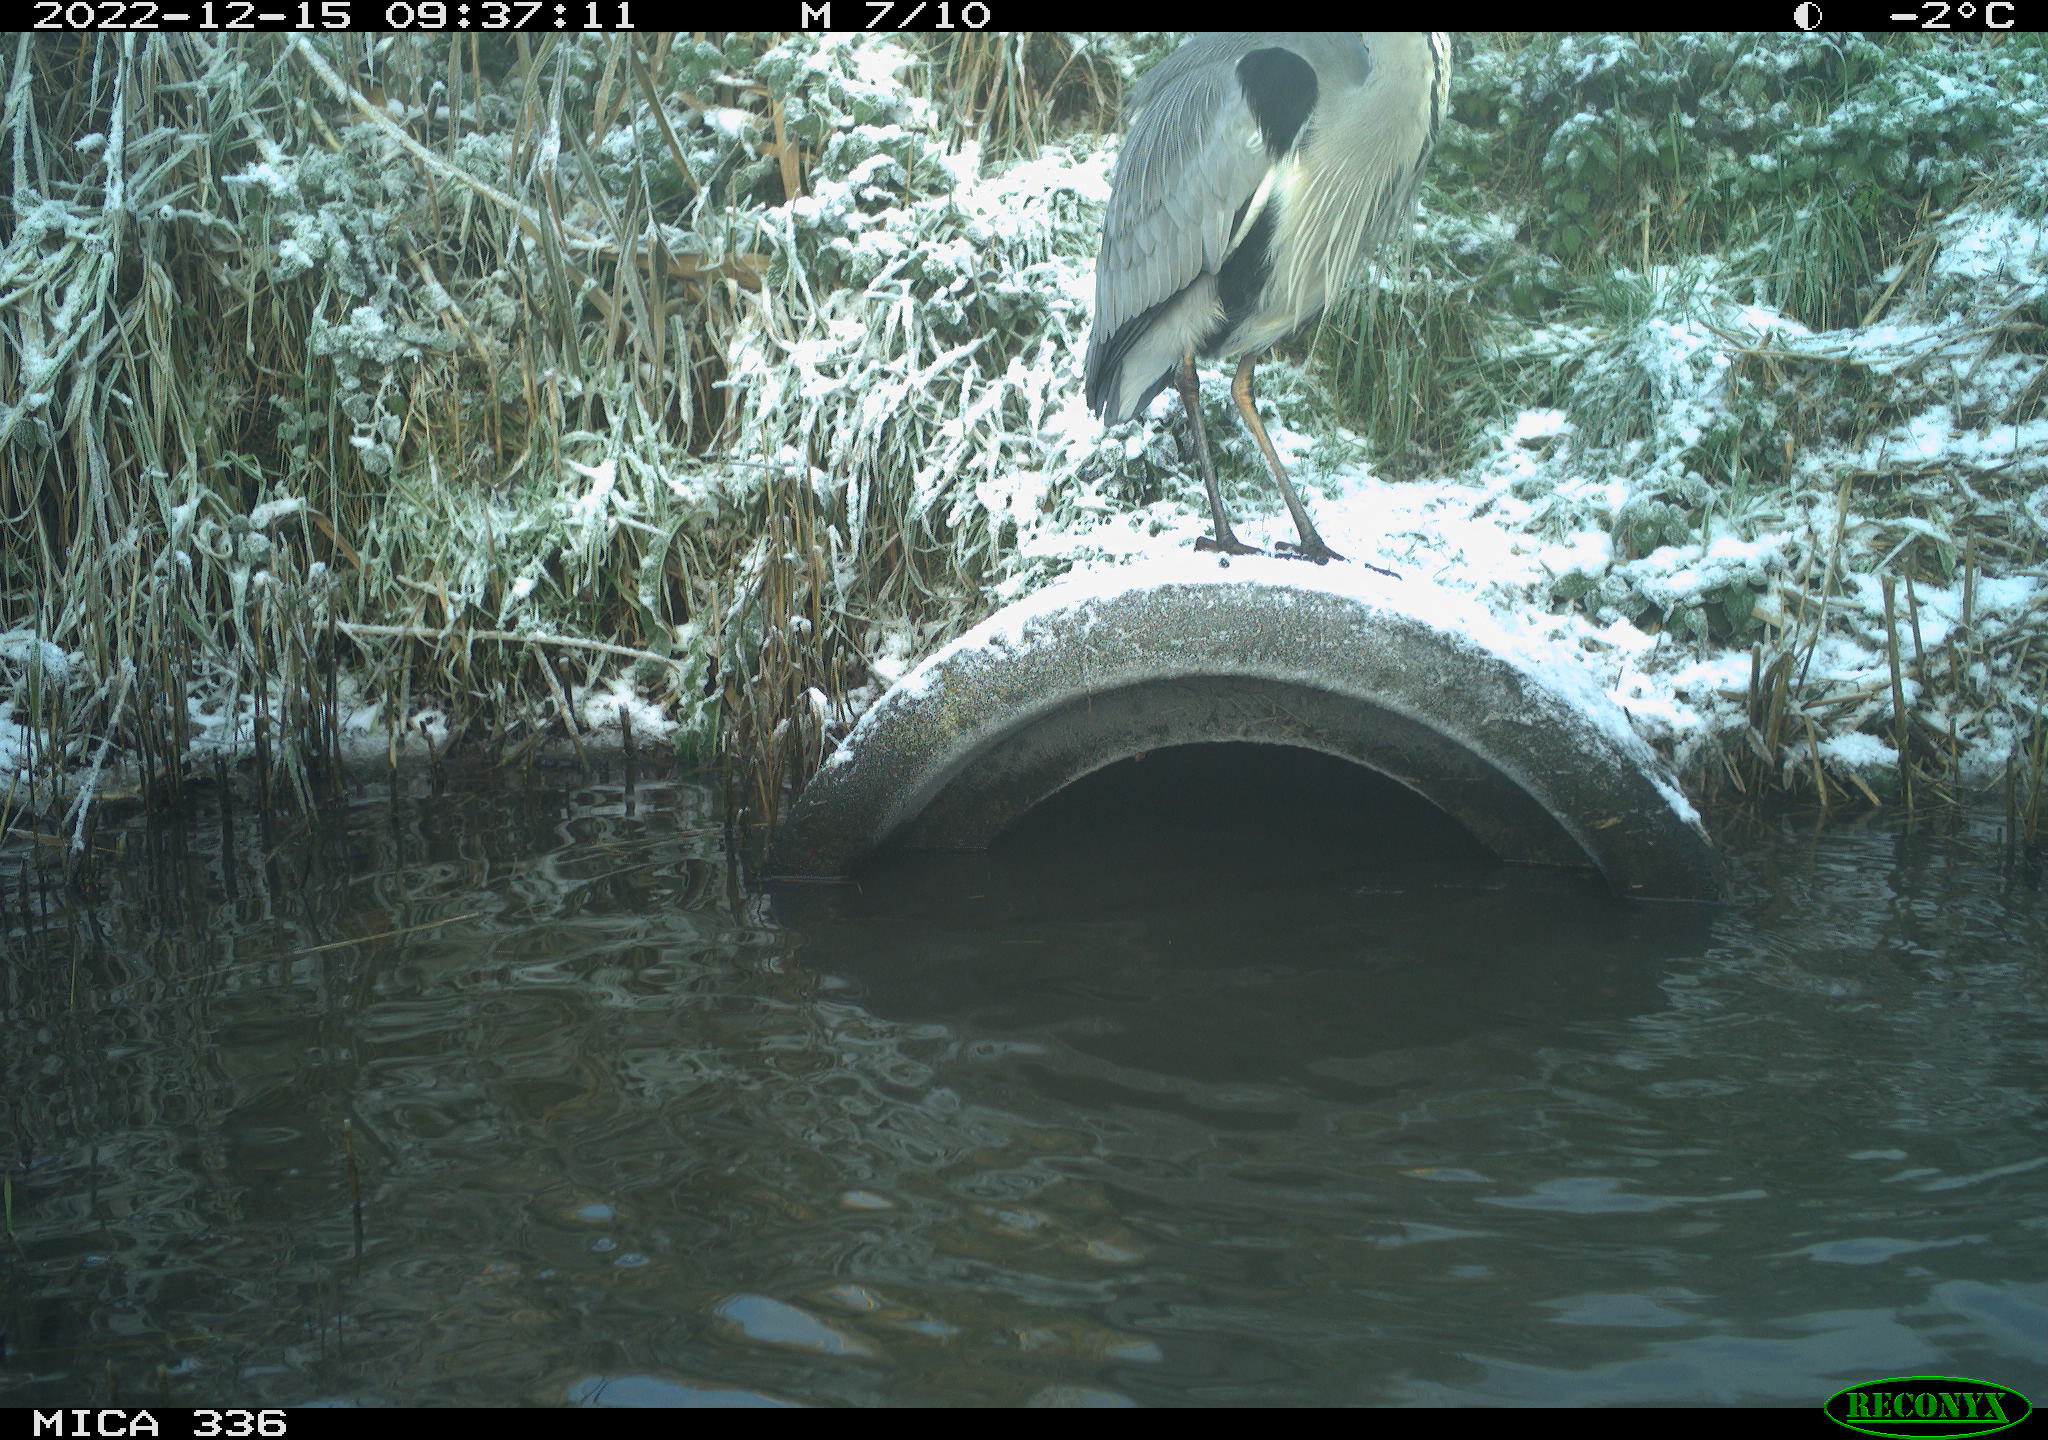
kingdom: Animalia
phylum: Chordata
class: Aves
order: Pelecaniformes
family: Ardeidae
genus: Ardea
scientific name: Ardea cinerea
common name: Grey heron
